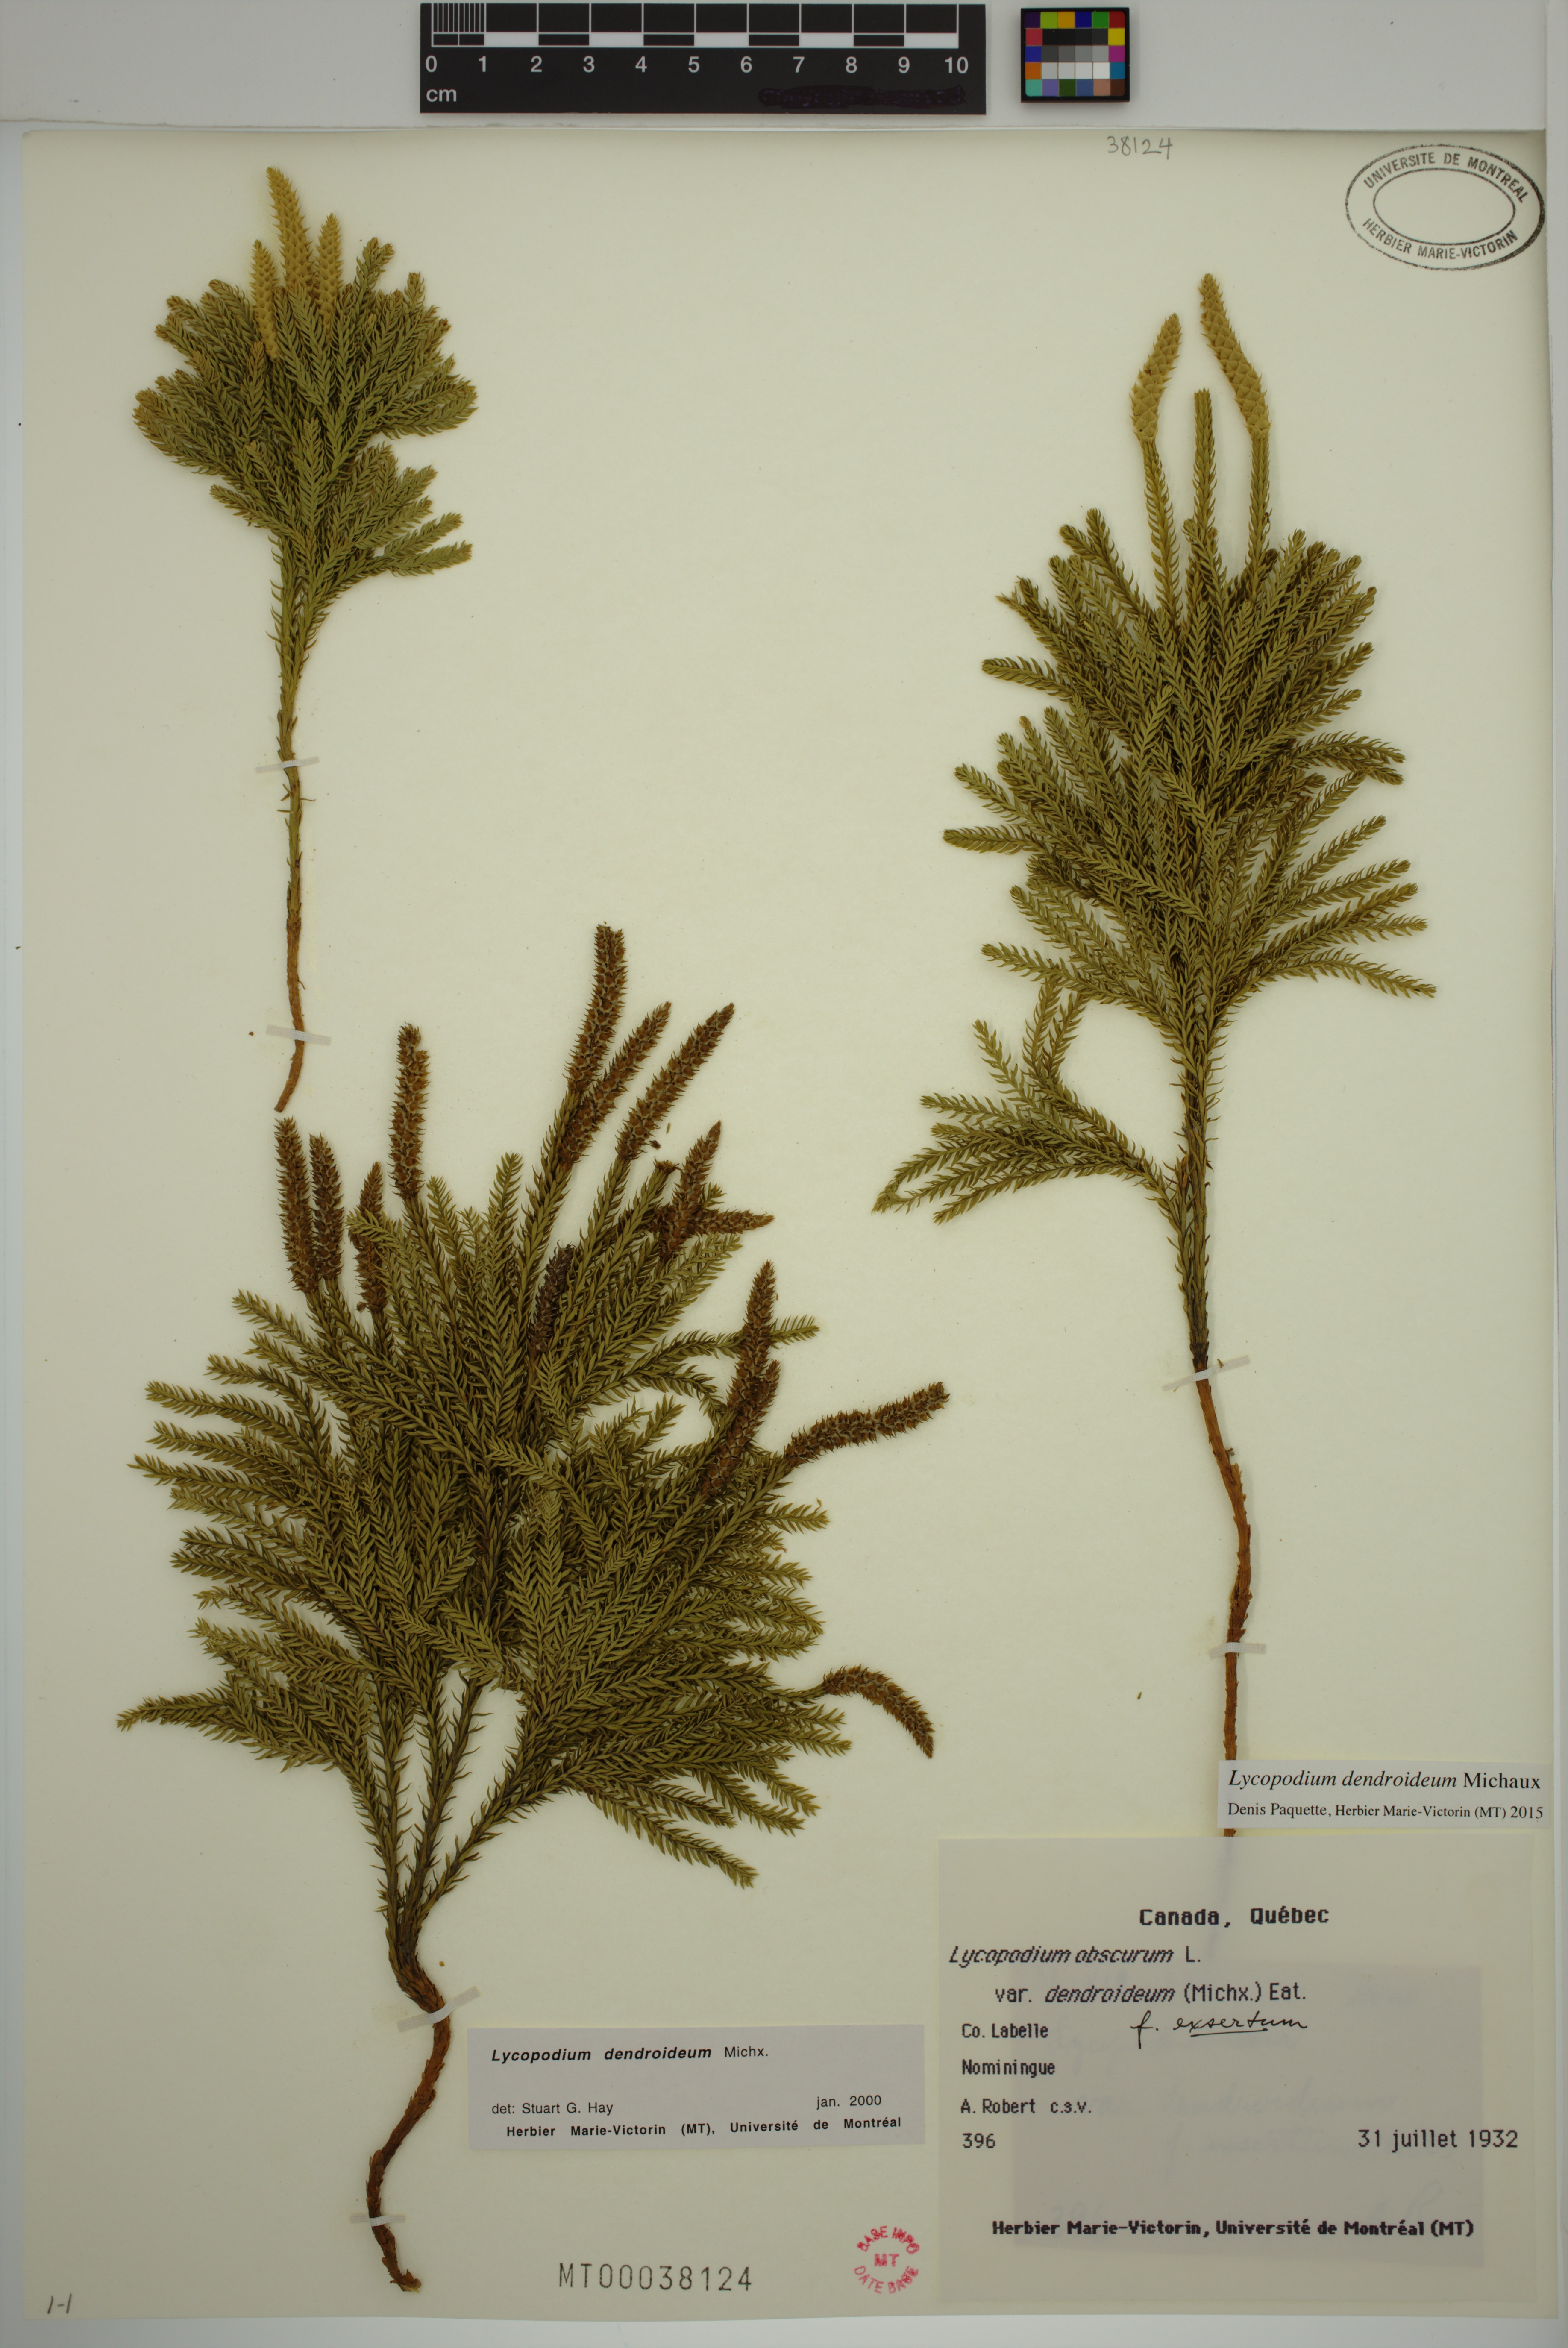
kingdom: Plantae
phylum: Tracheophyta
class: Lycopodiopsida
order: Lycopodiales
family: Lycopodiaceae
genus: Dendrolycopodium
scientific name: Dendrolycopodium dendroideum
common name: Northern tree-clubmoss
